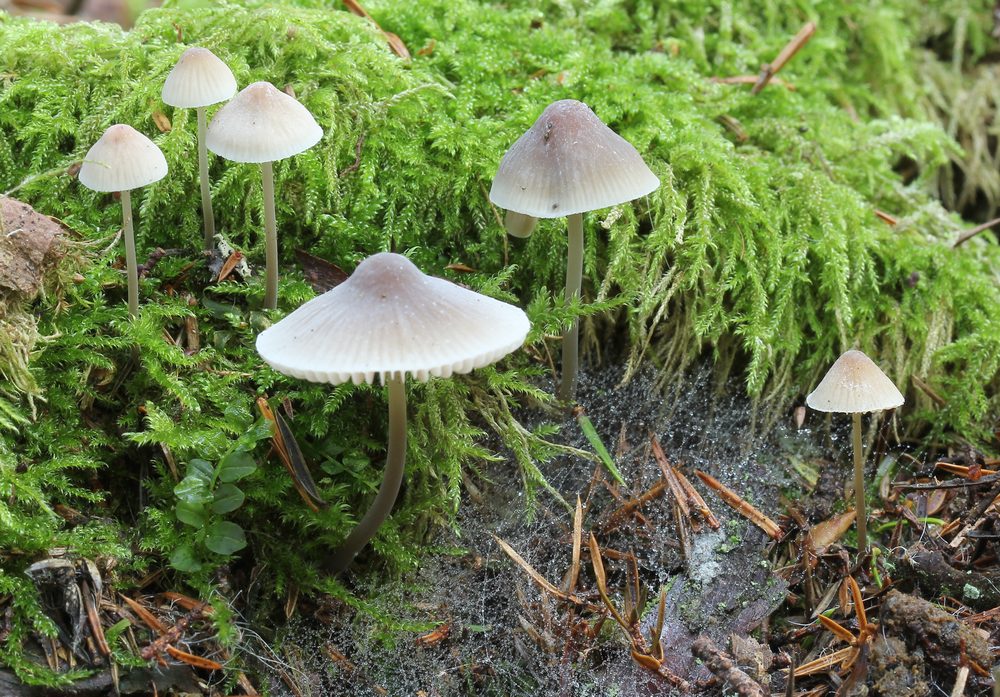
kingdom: Fungi
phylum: Basidiomycota
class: Agaricomycetes
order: Agaricales
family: Mycenaceae
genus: Mycena
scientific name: Mycena metata
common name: rødlig huesvamp
